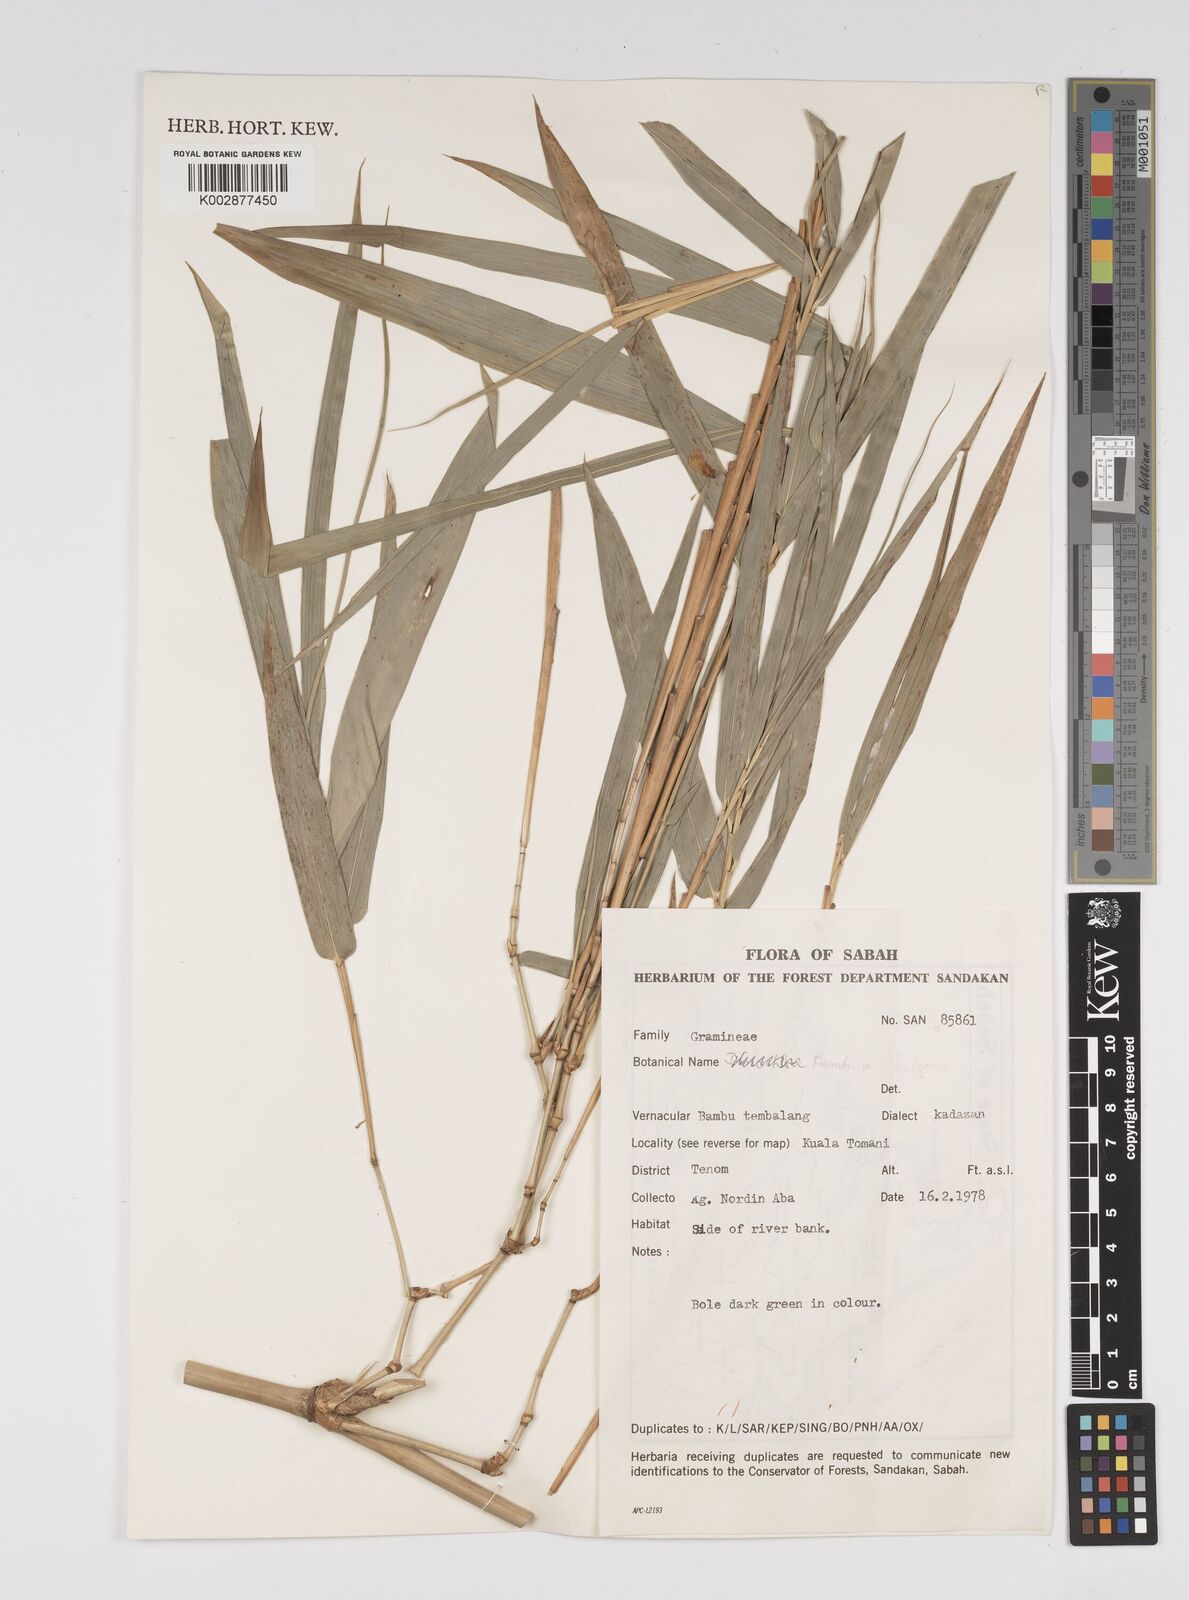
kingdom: Plantae
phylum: Tracheophyta
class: Liliopsida
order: Poales
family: Poaceae
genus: Bambusa
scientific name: Bambusa vulgaris
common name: Common bamboo
